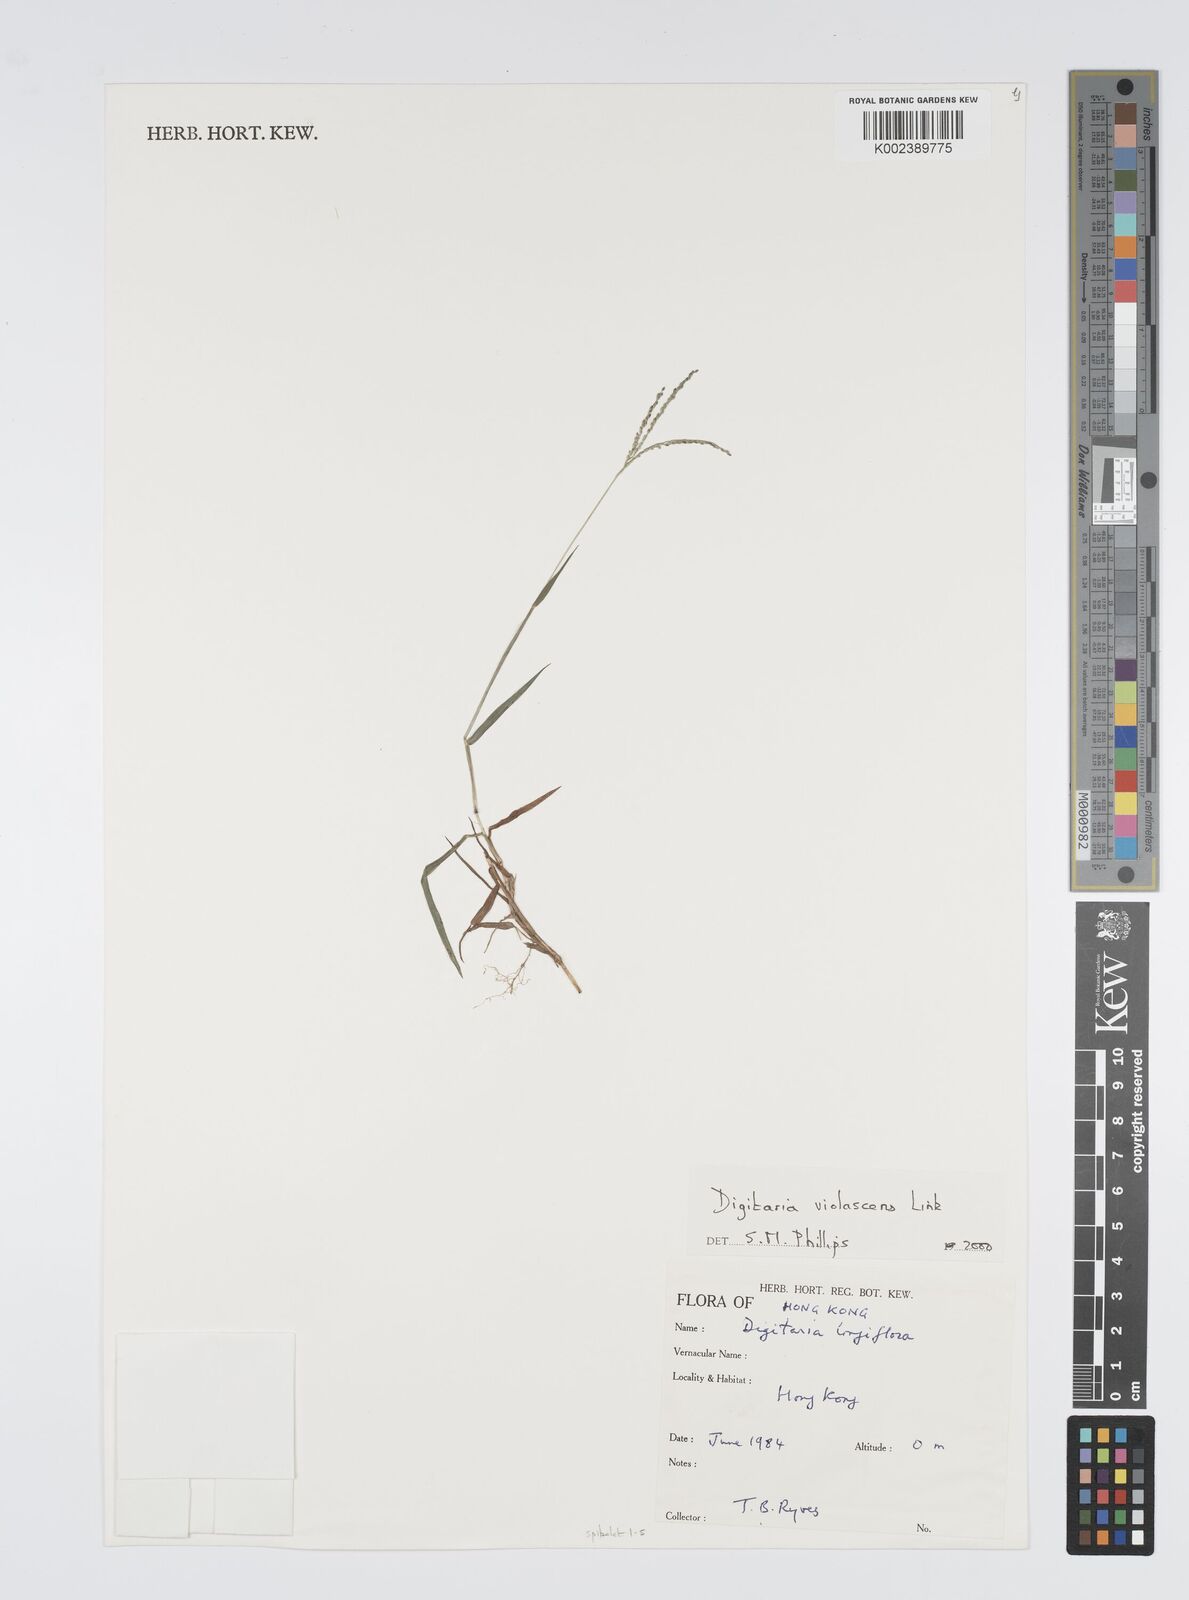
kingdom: Plantae
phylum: Tracheophyta
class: Liliopsida
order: Poales
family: Poaceae
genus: Digitaria
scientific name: Digitaria violascens
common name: Violet crabgrass
